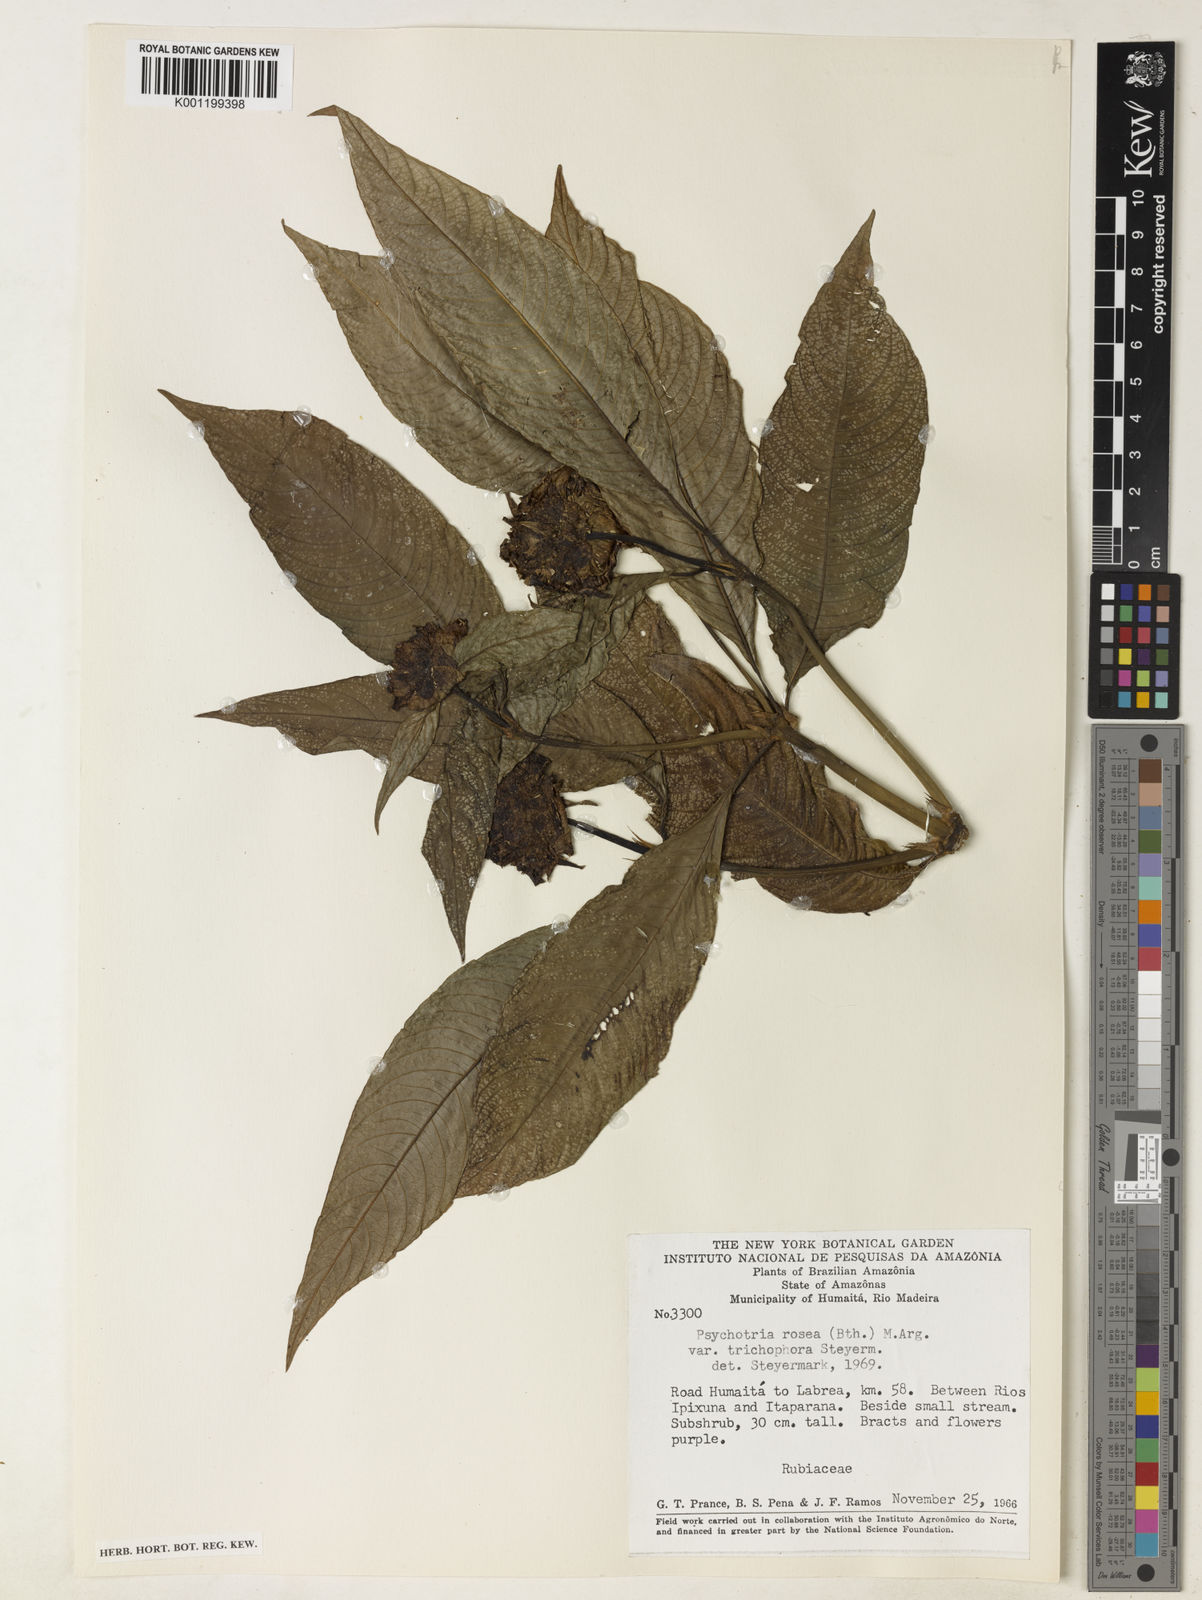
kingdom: Plantae
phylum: Tracheophyta
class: Magnoliopsida
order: Gentianales
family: Rubiaceae
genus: Palicourea
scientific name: Palicourea colorata
